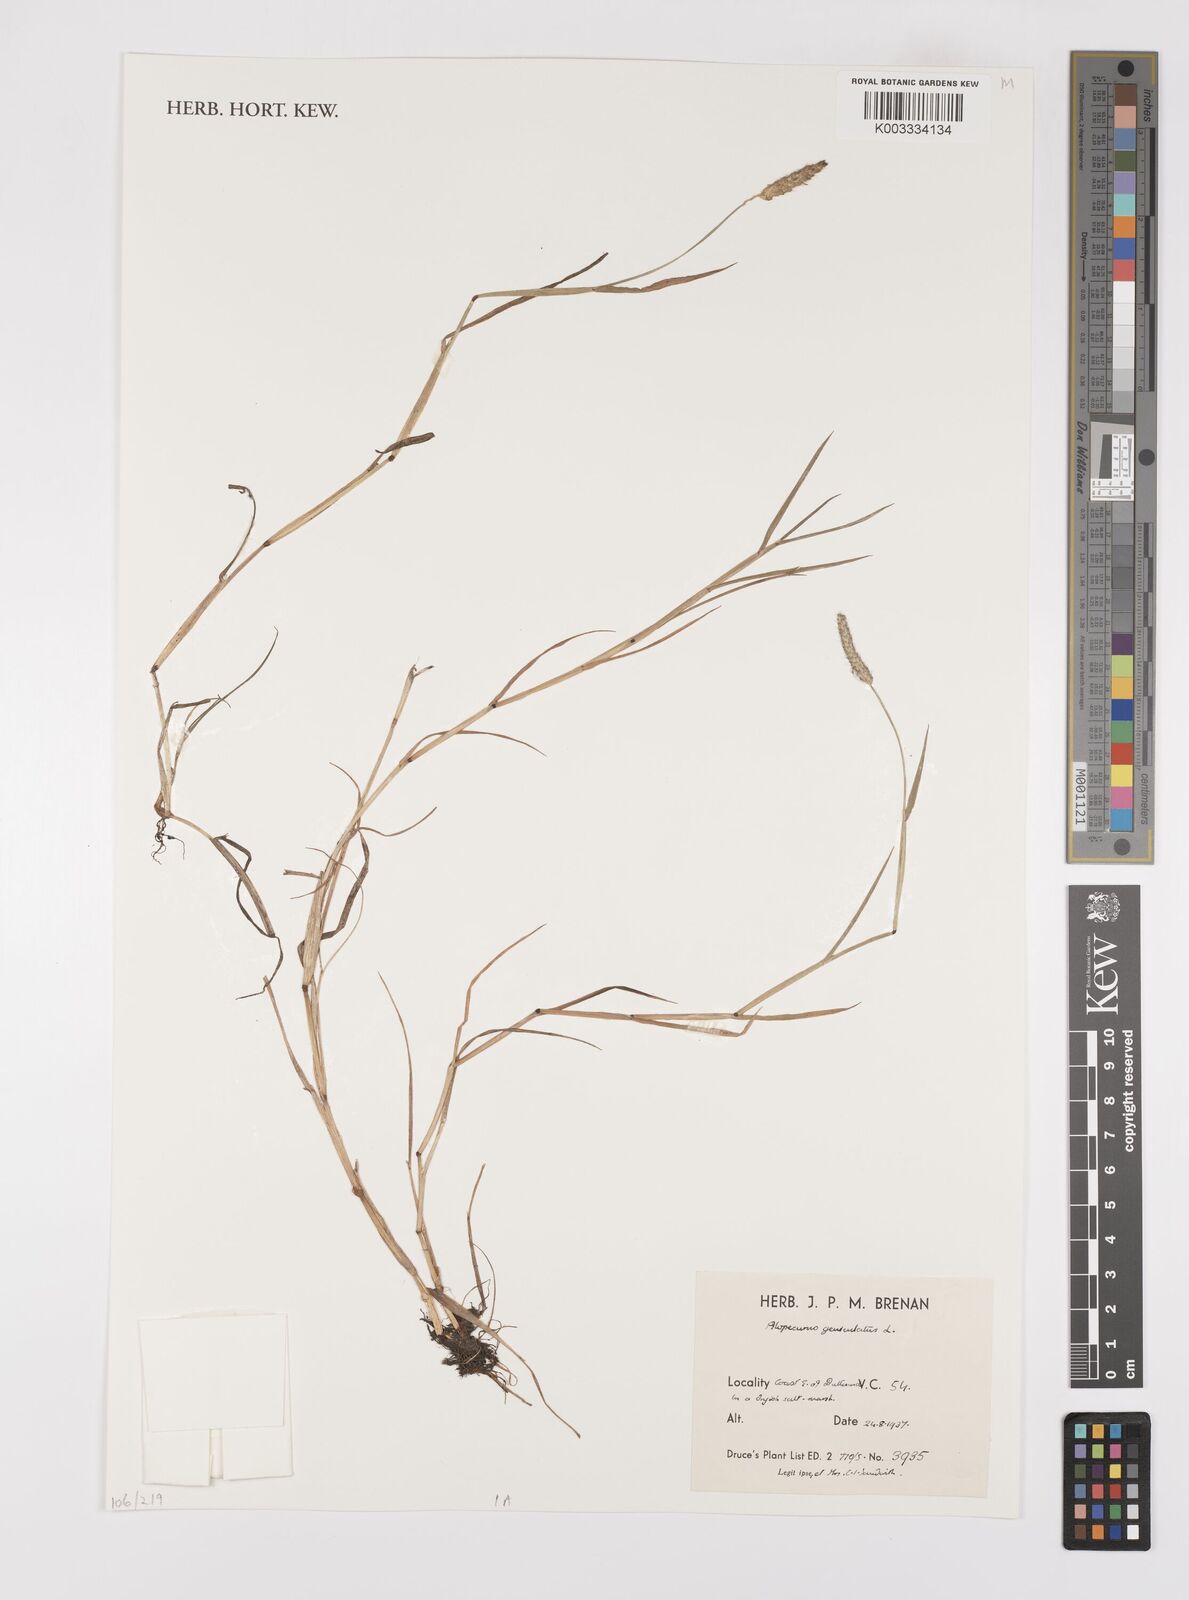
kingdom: Plantae
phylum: Tracheophyta
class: Liliopsida
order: Poales
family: Poaceae
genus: Alopecurus
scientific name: Alopecurus geniculatus
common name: Water foxtail
